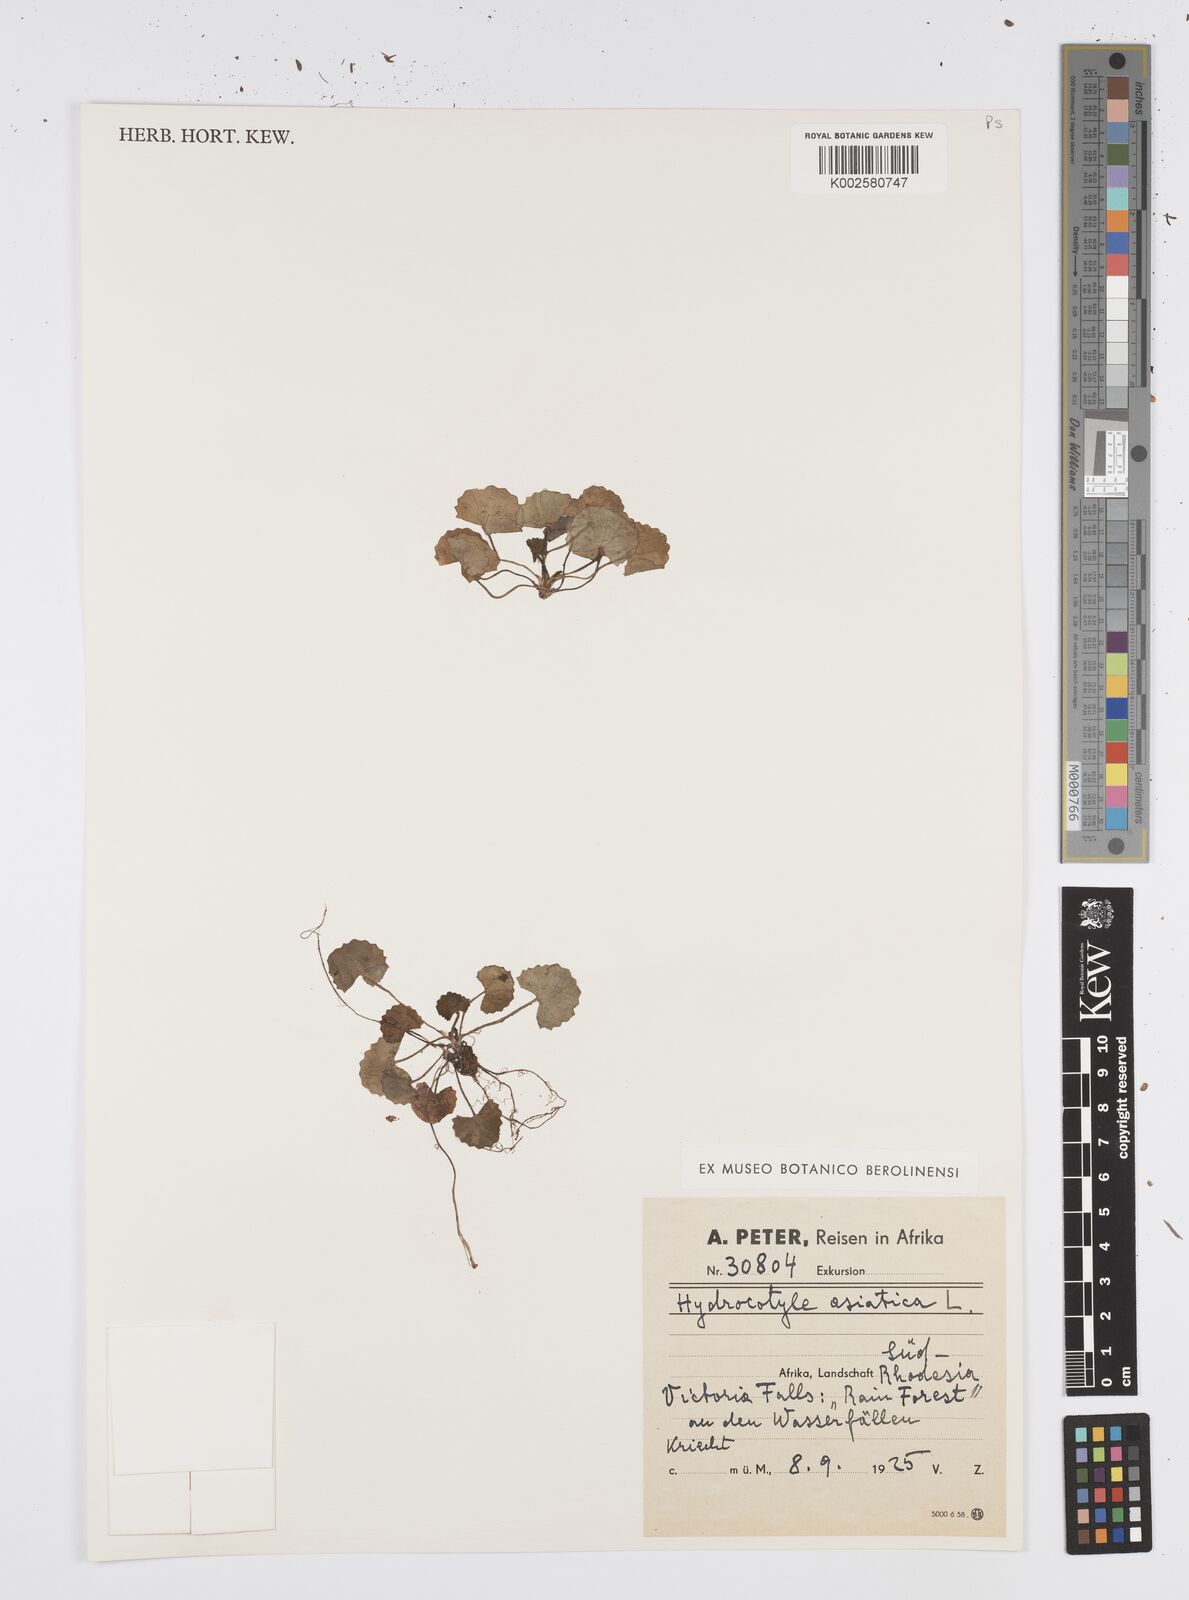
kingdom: Plantae
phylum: Tracheophyta
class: Magnoliopsida
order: Apiales
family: Apiaceae
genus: Centella
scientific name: Centella asiatica
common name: Spadeleaf
